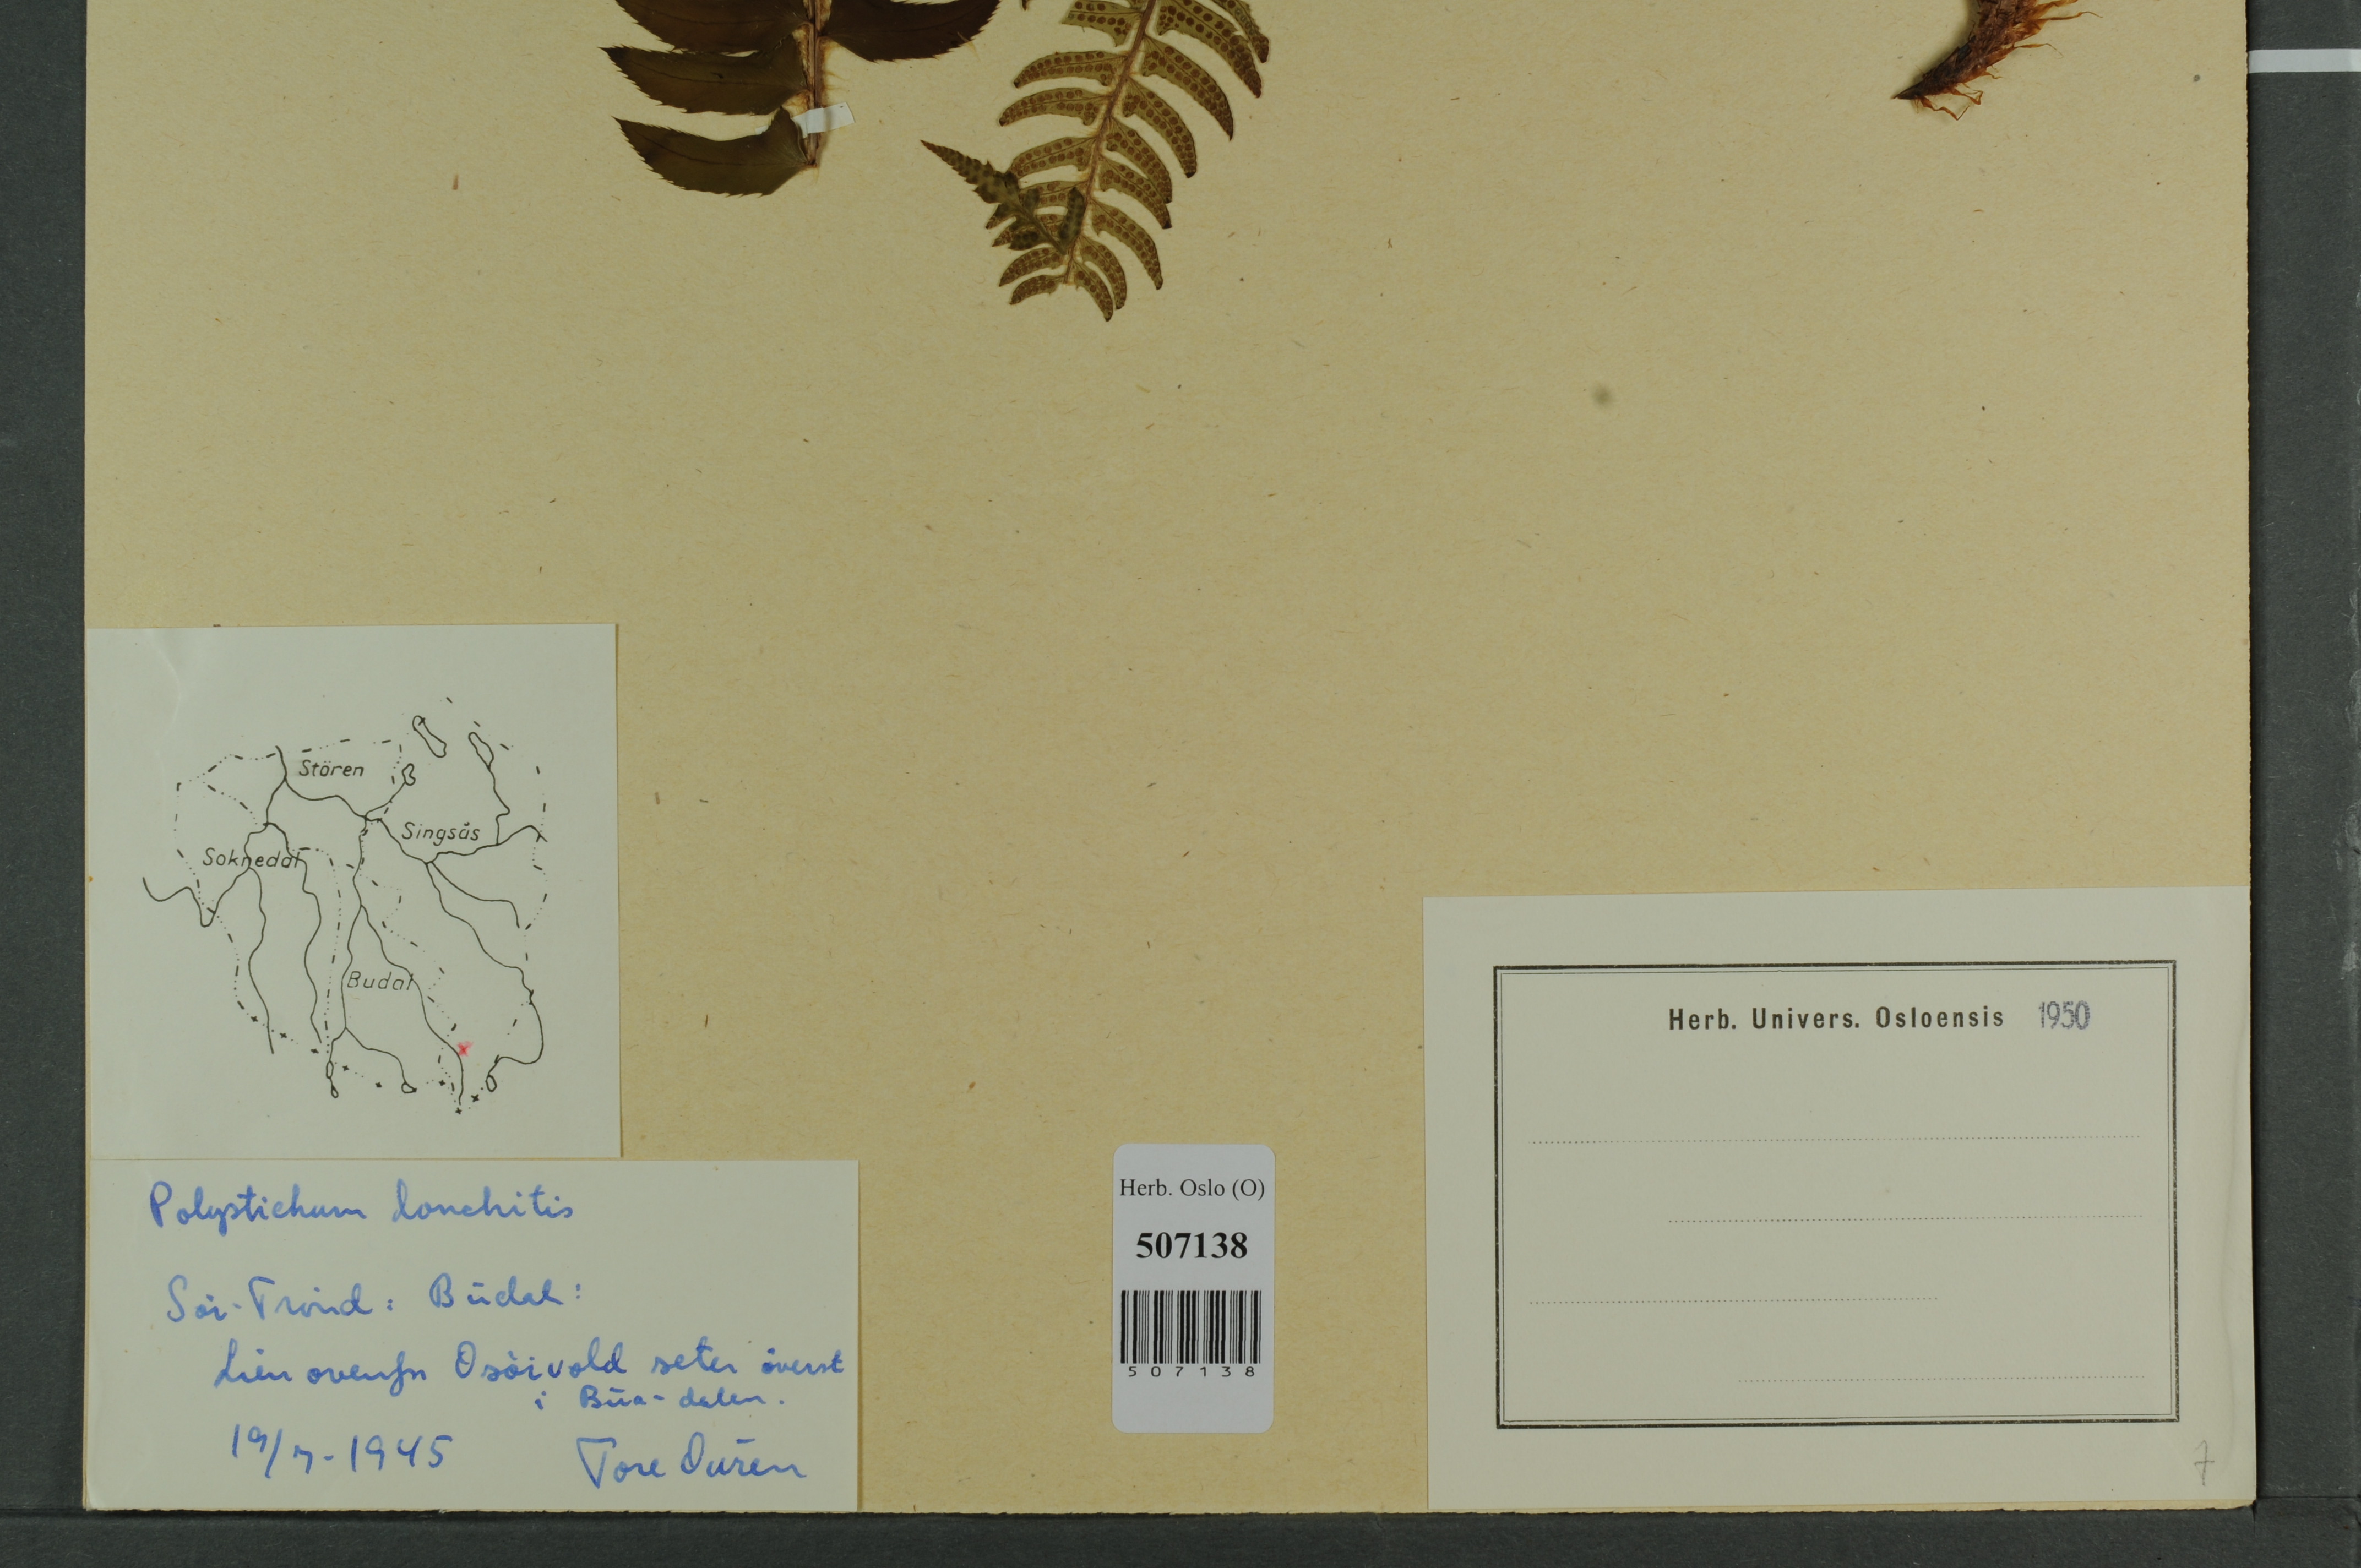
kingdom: Plantae
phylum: Tracheophyta
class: Polypodiopsida
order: Polypodiales
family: Dryopteridaceae
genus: Polystichum
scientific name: Polystichum lonchitis
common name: Holly fern
